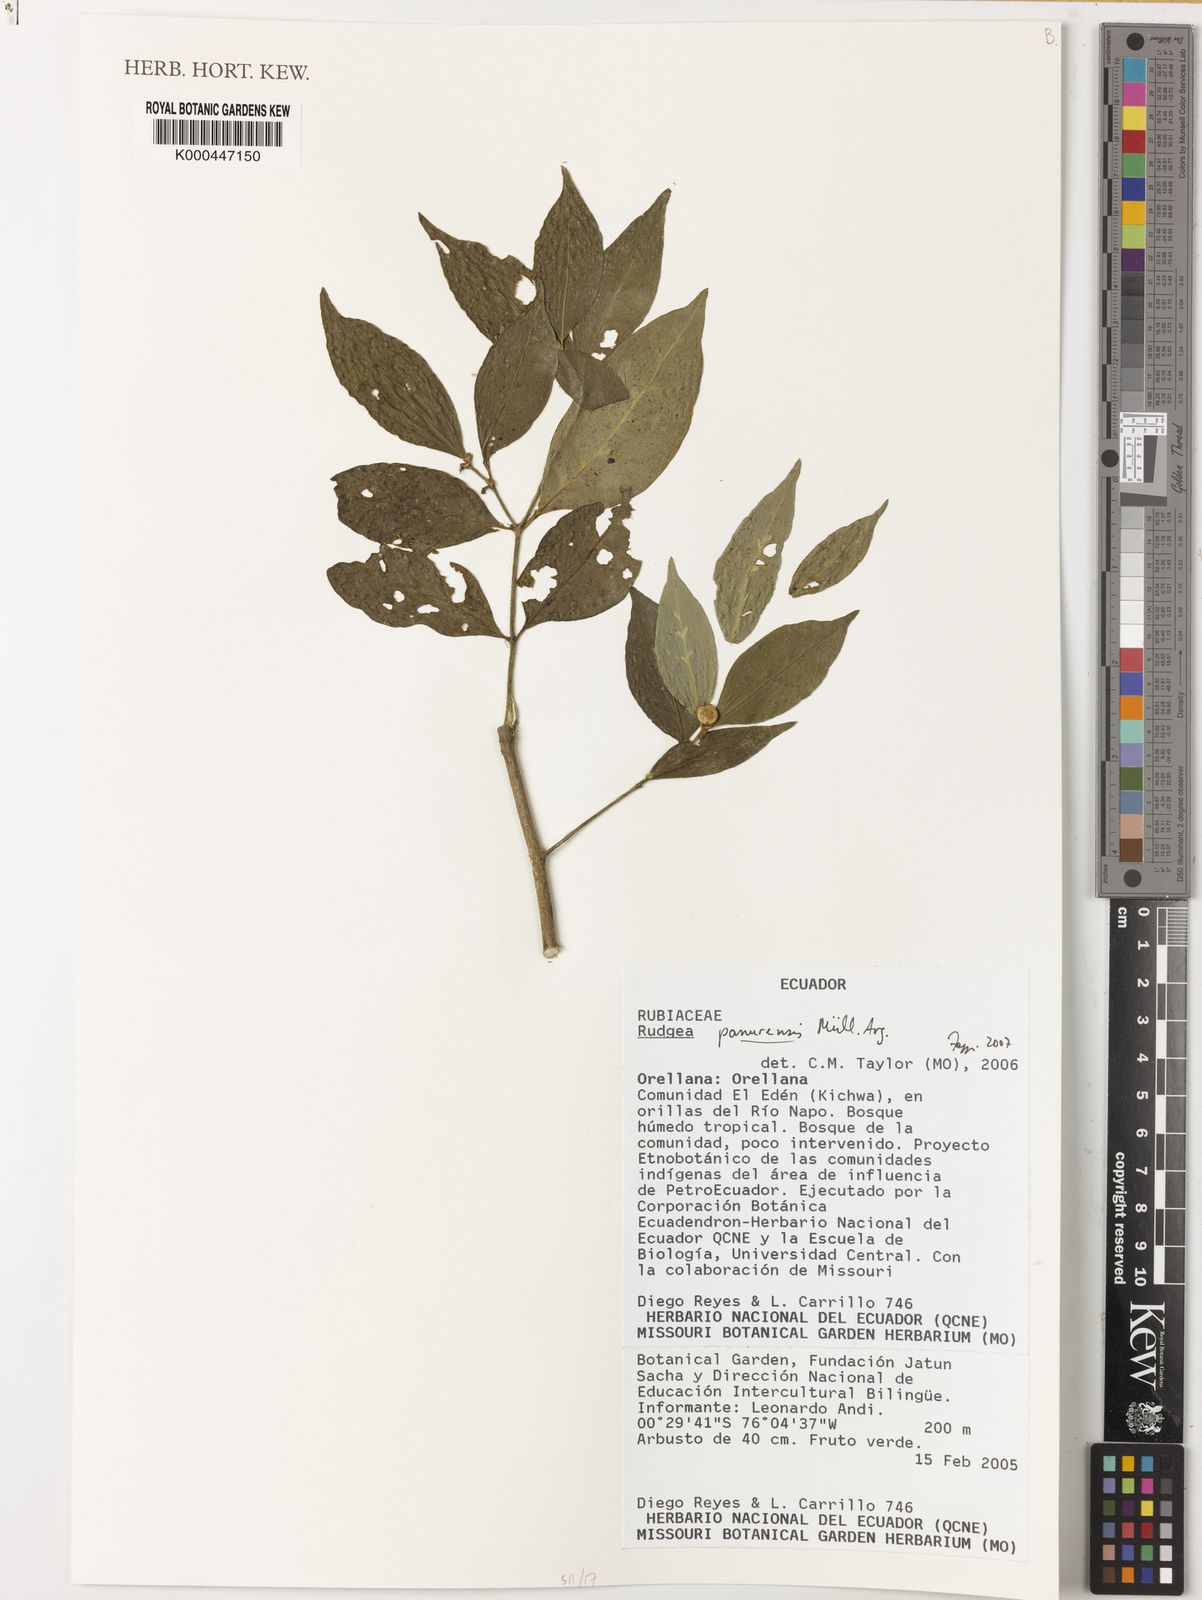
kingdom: Plantae
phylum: Tracheophyta
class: Magnoliopsida
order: Gentianales
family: Rubiaceae
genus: Rudgea
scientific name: Rudgea panurensis
